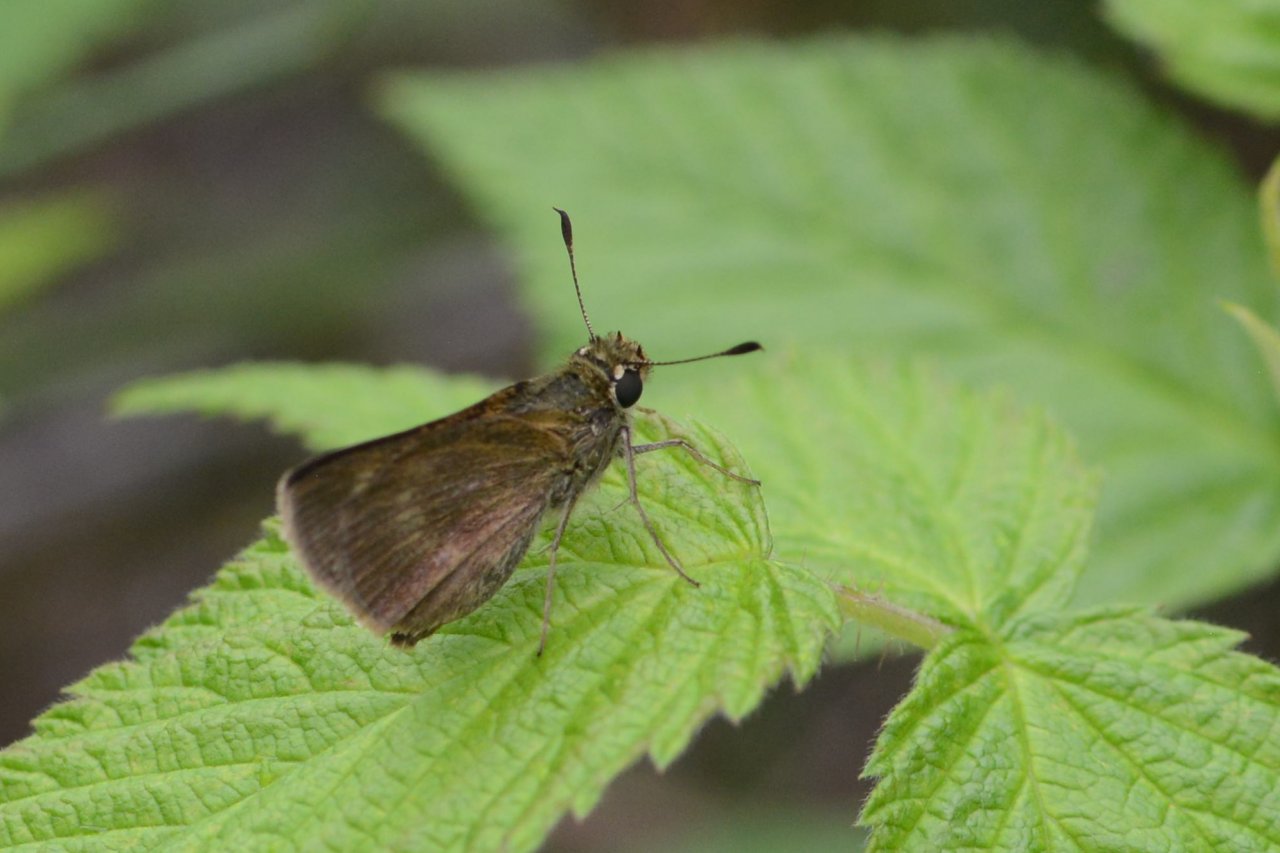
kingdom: Animalia
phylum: Arthropoda
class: Insecta
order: Lepidoptera
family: Hesperiidae
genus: Polites
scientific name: Polites egeremet
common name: Northern Broken-Dash
